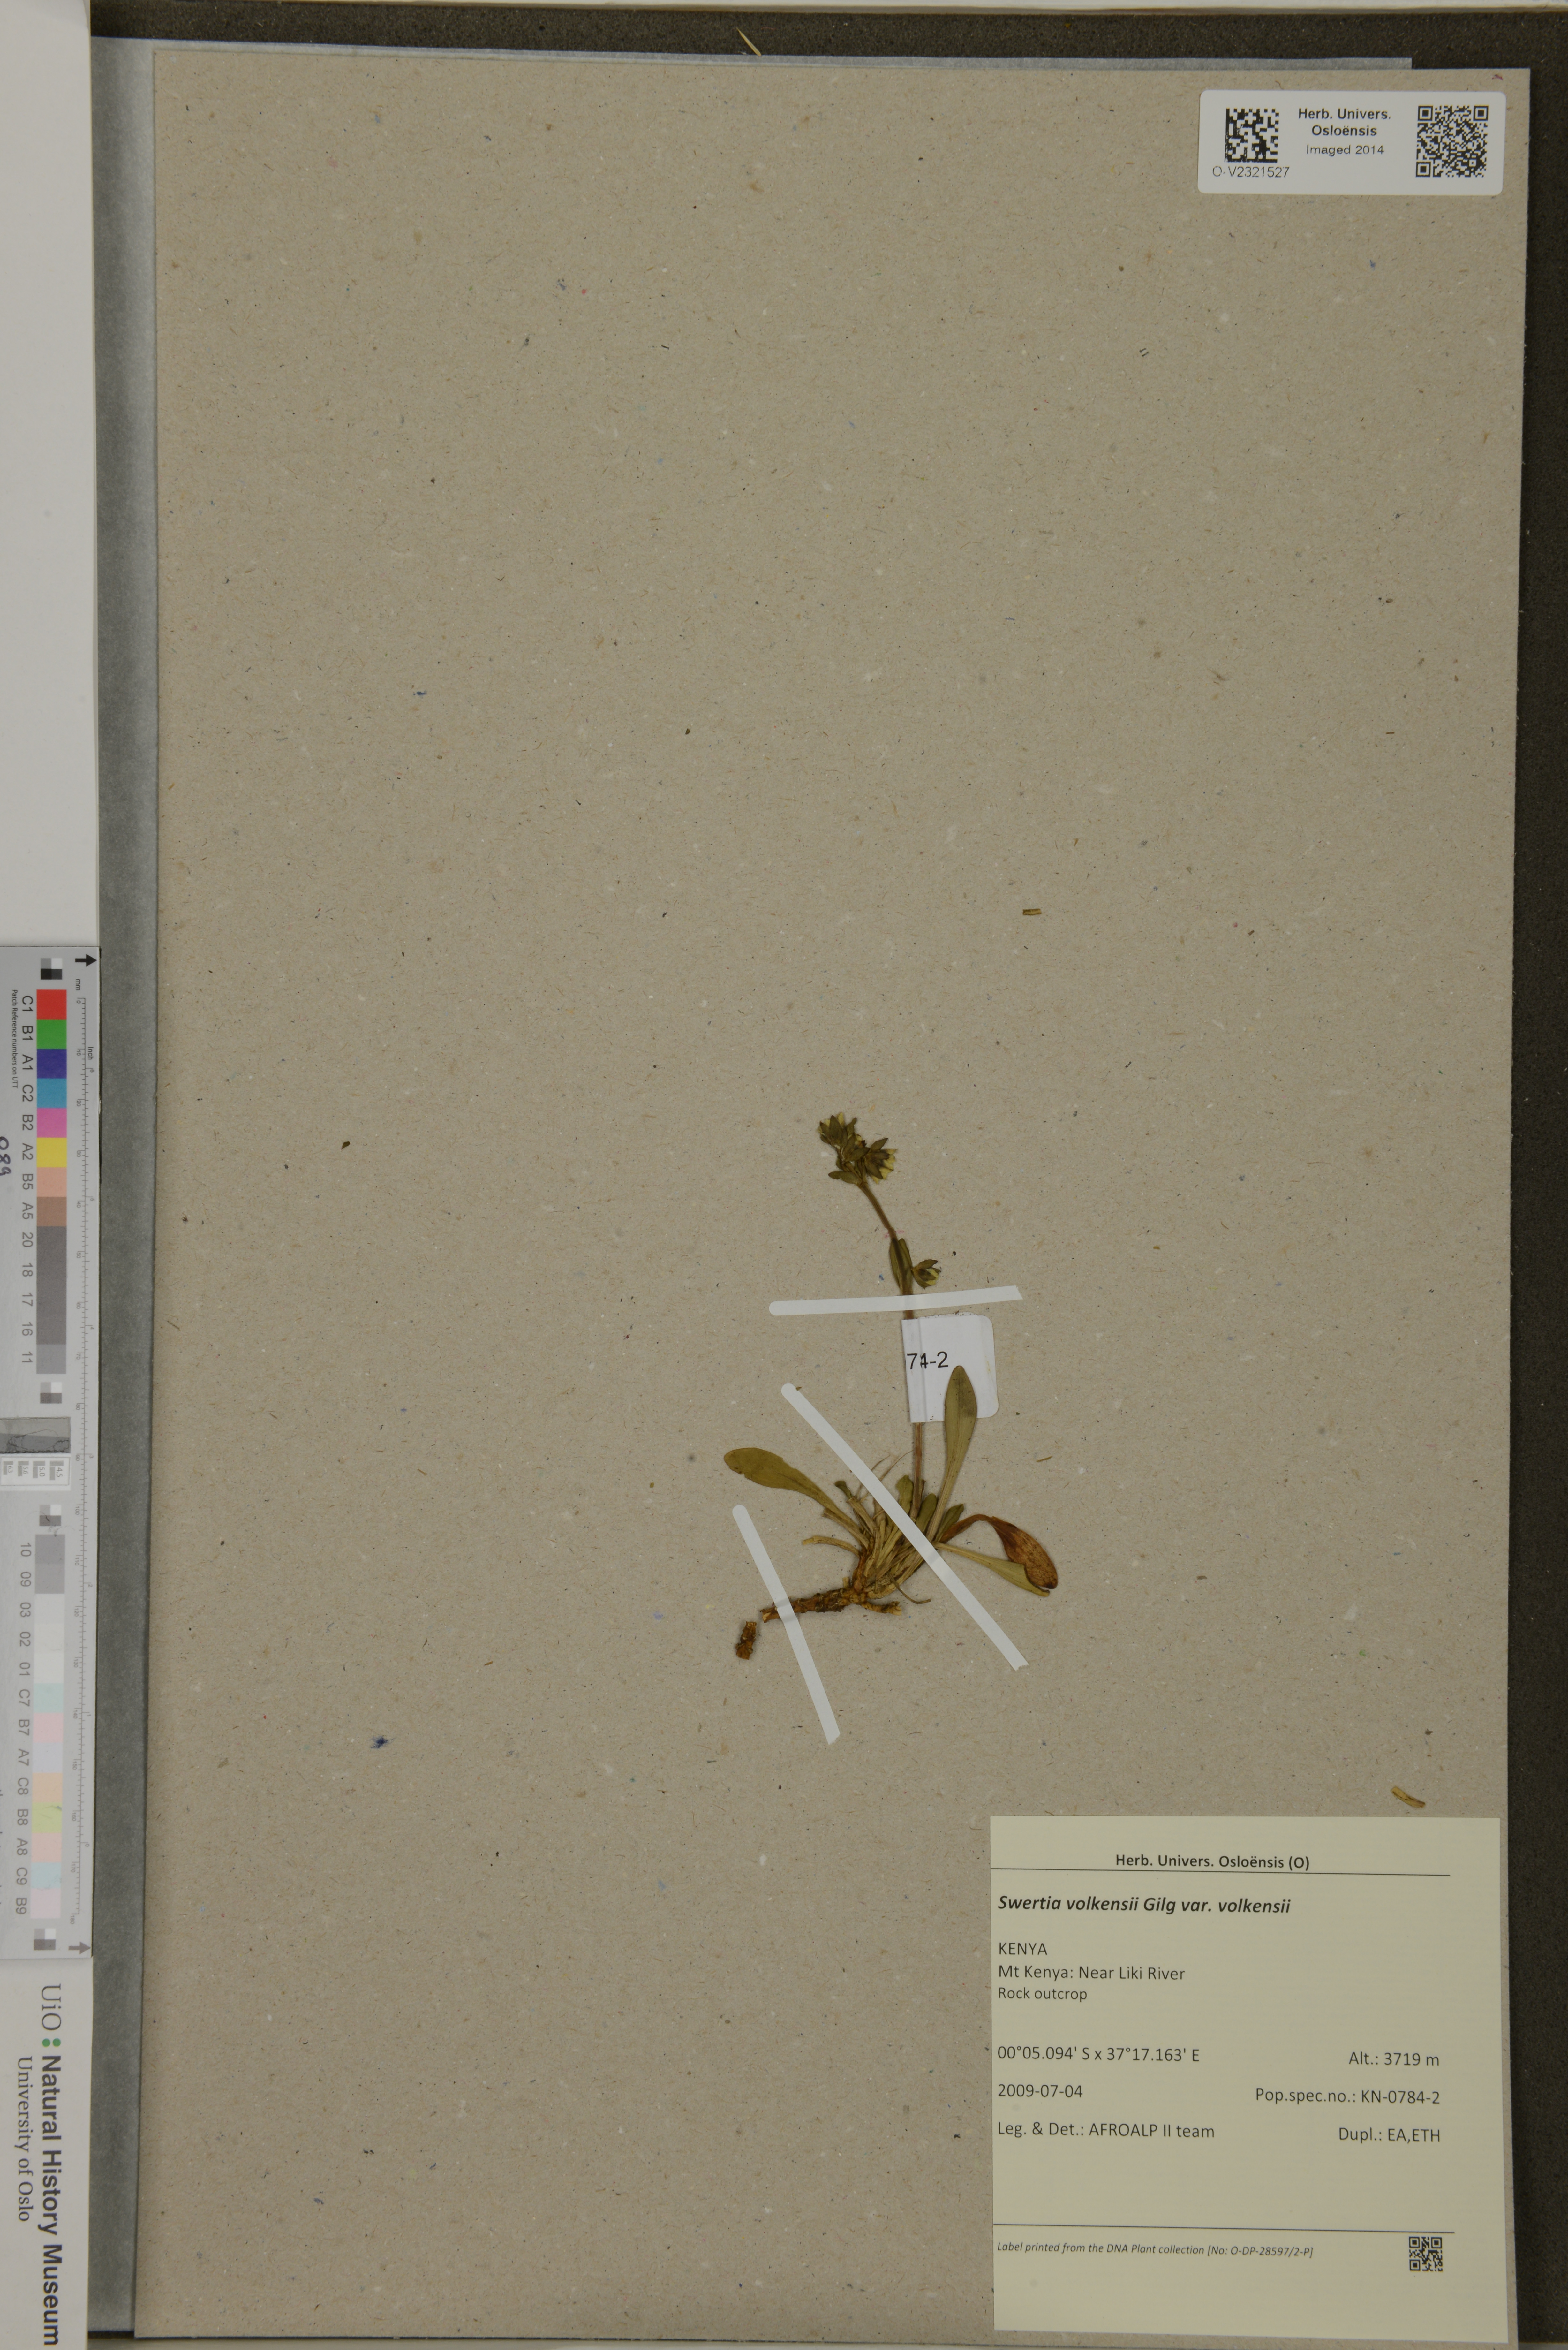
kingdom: Plantae
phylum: Tracheophyta
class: Magnoliopsida
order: Gentianales
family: Gentianaceae
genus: Swertia
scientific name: Swertia volkensii
